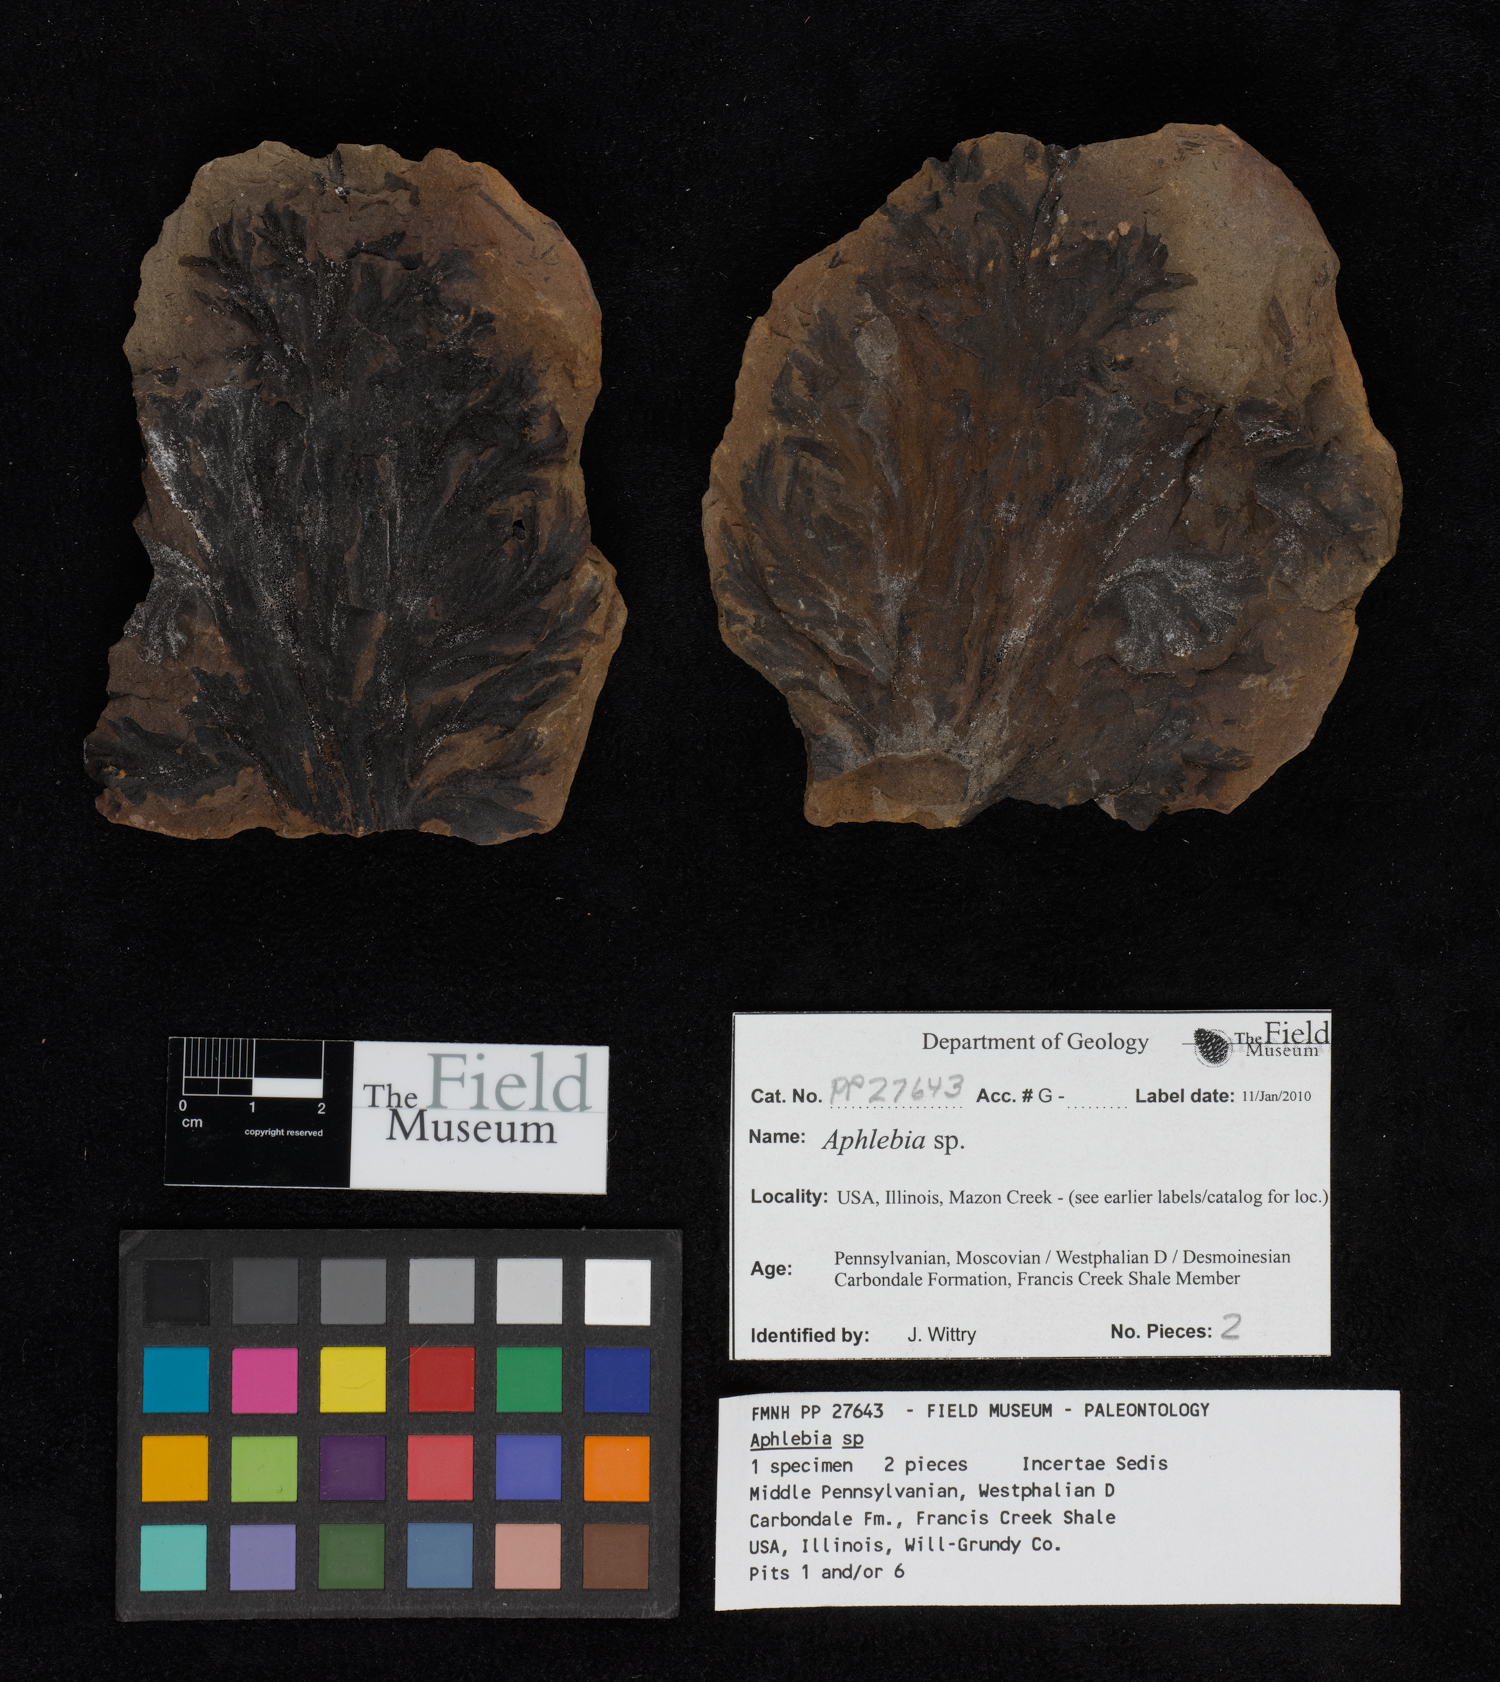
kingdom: Plantae
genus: Rhacophyllum
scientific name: Rhacophyllum
